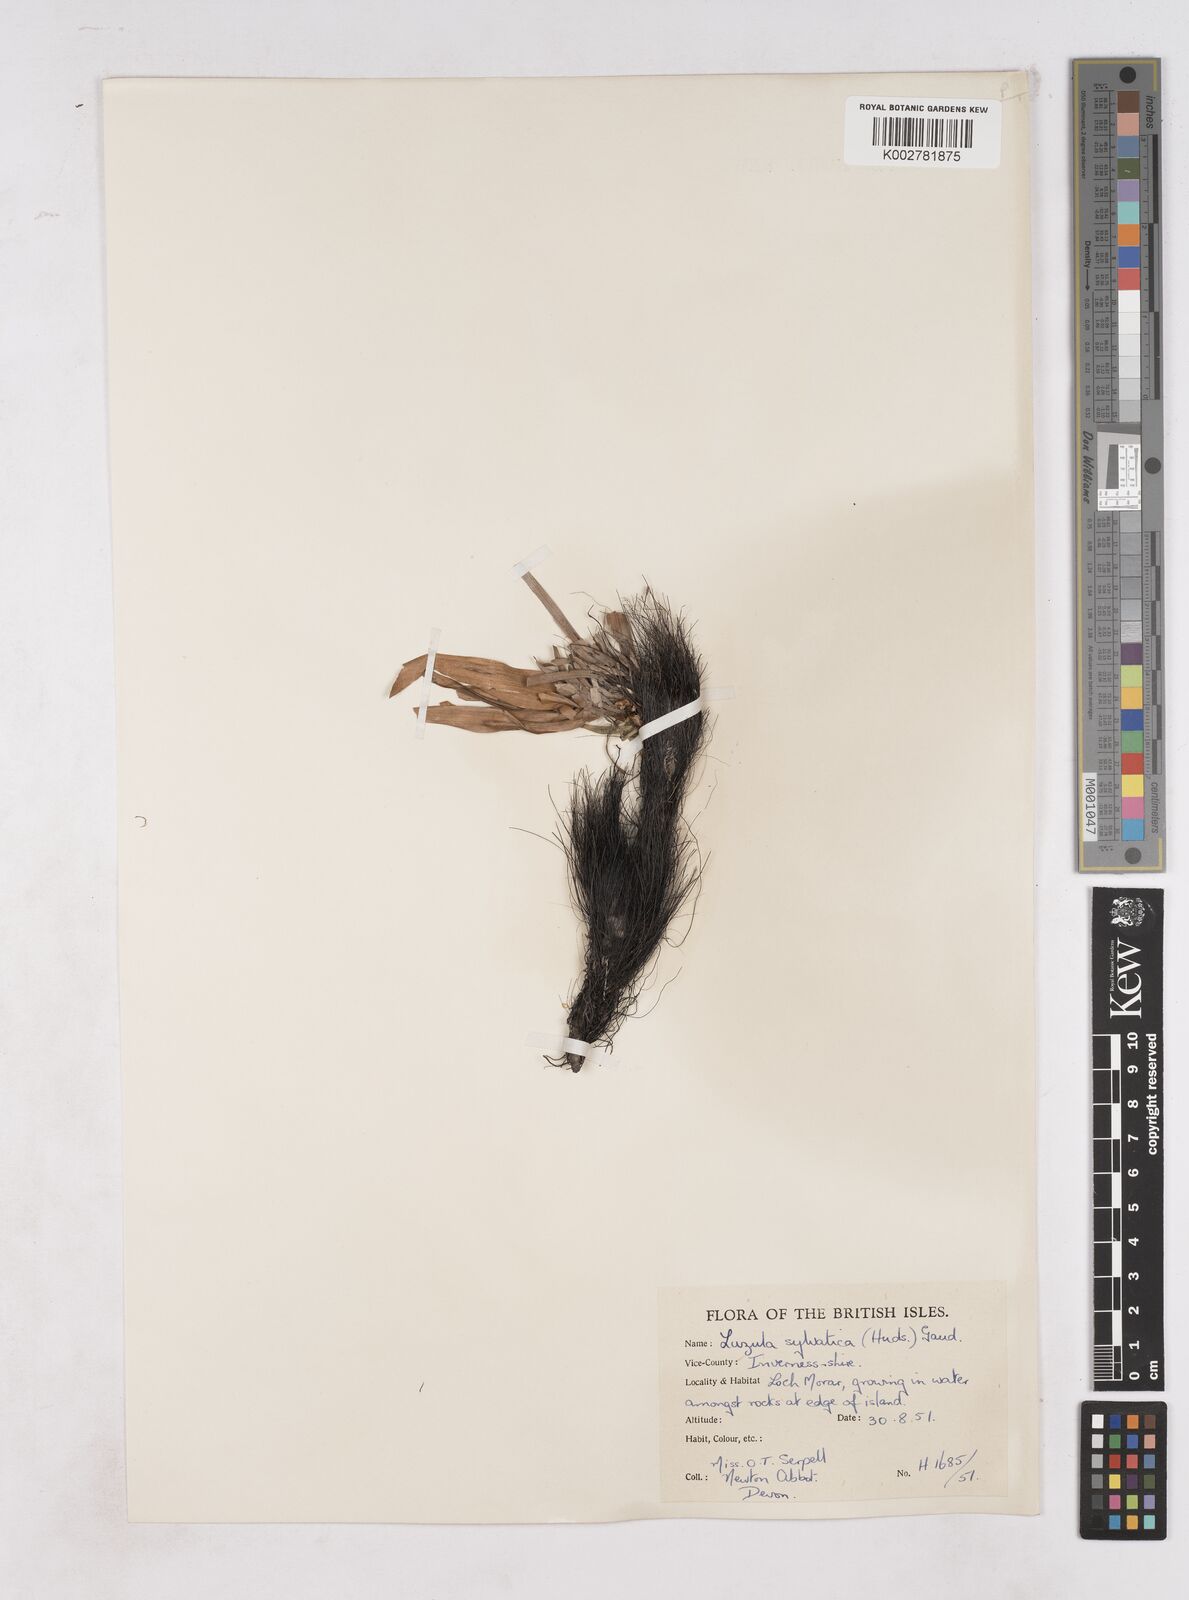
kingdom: Plantae
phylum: Tracheophyta
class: Liliopsida
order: Poales
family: Juncaceae
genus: Luzula
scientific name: Luzula sylvatica
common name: Great wood-rush
